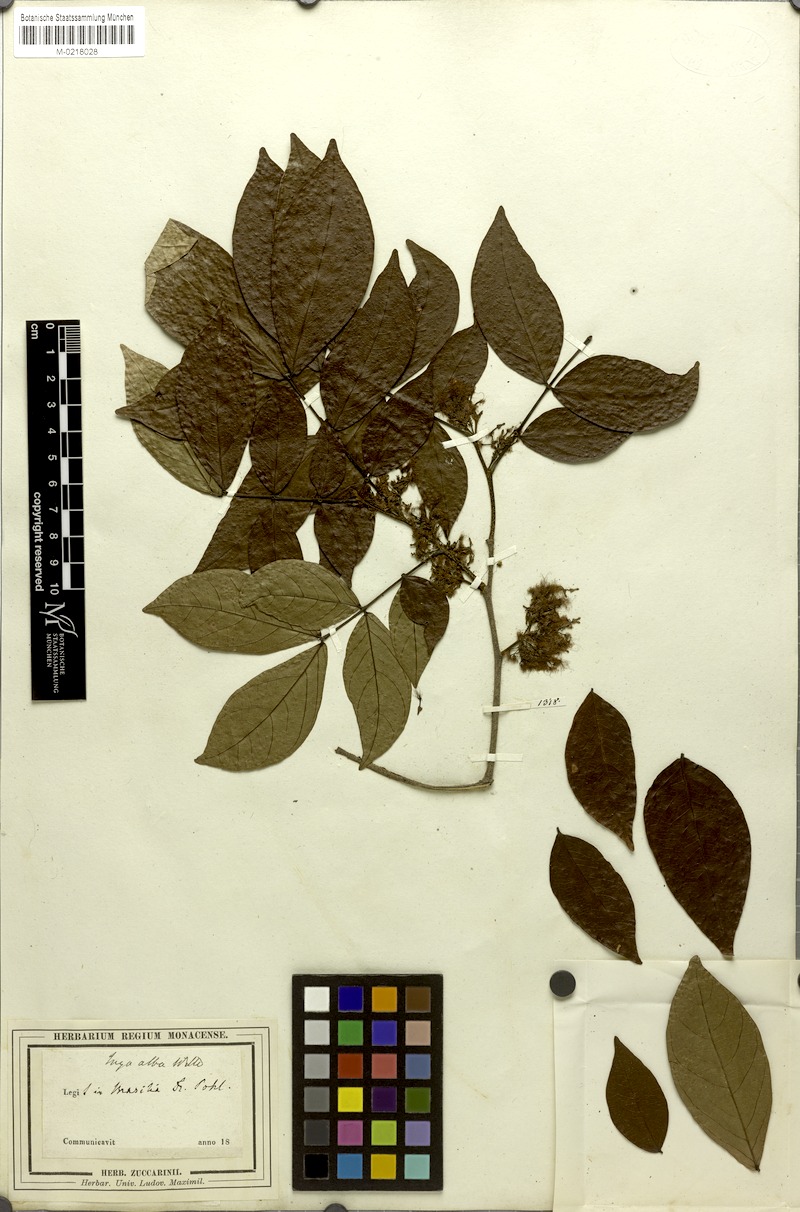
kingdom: Plantae
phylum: Tracheophyta
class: Magnoliopsida
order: Fabales
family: Fabaceae
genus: Inga
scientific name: Inga alba
